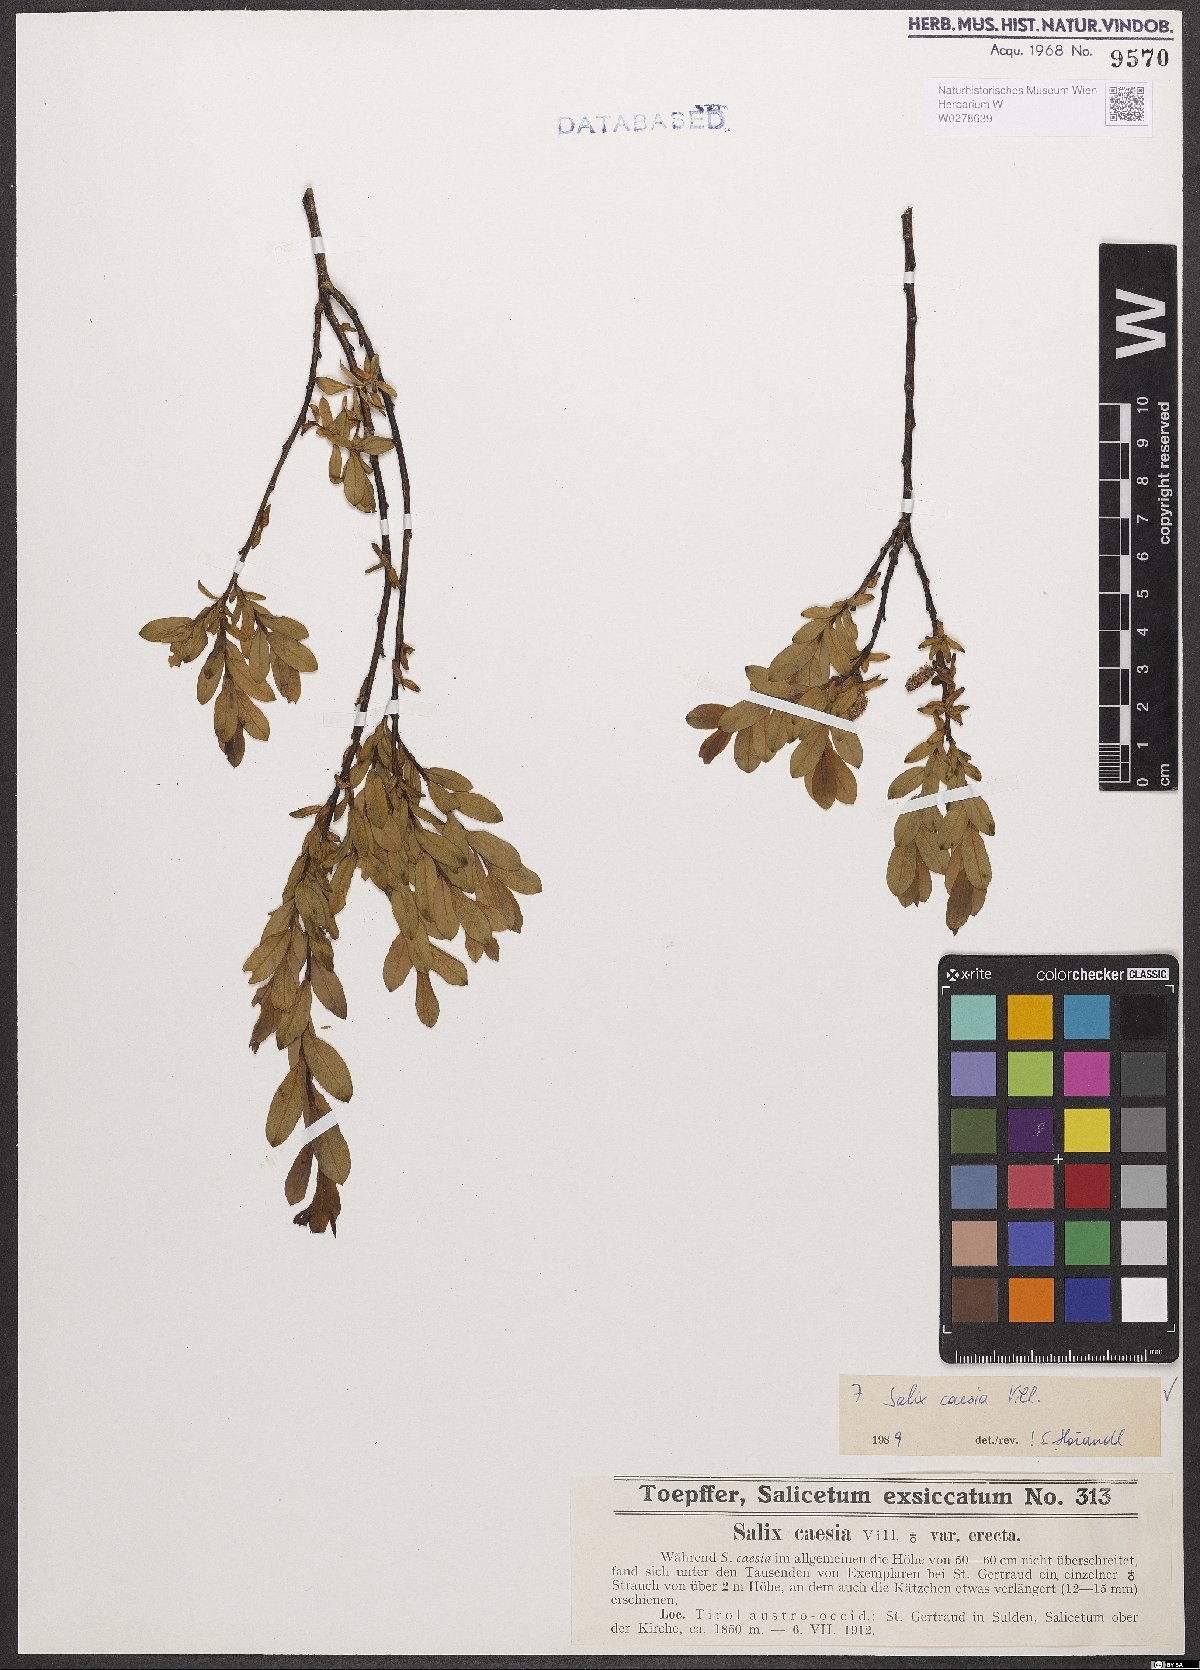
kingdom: Plantae
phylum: Tracheophyta
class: Magnoliopsida
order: Malpighiales
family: Salicaceae
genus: Salix
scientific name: Salix caesia
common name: Blue willow
